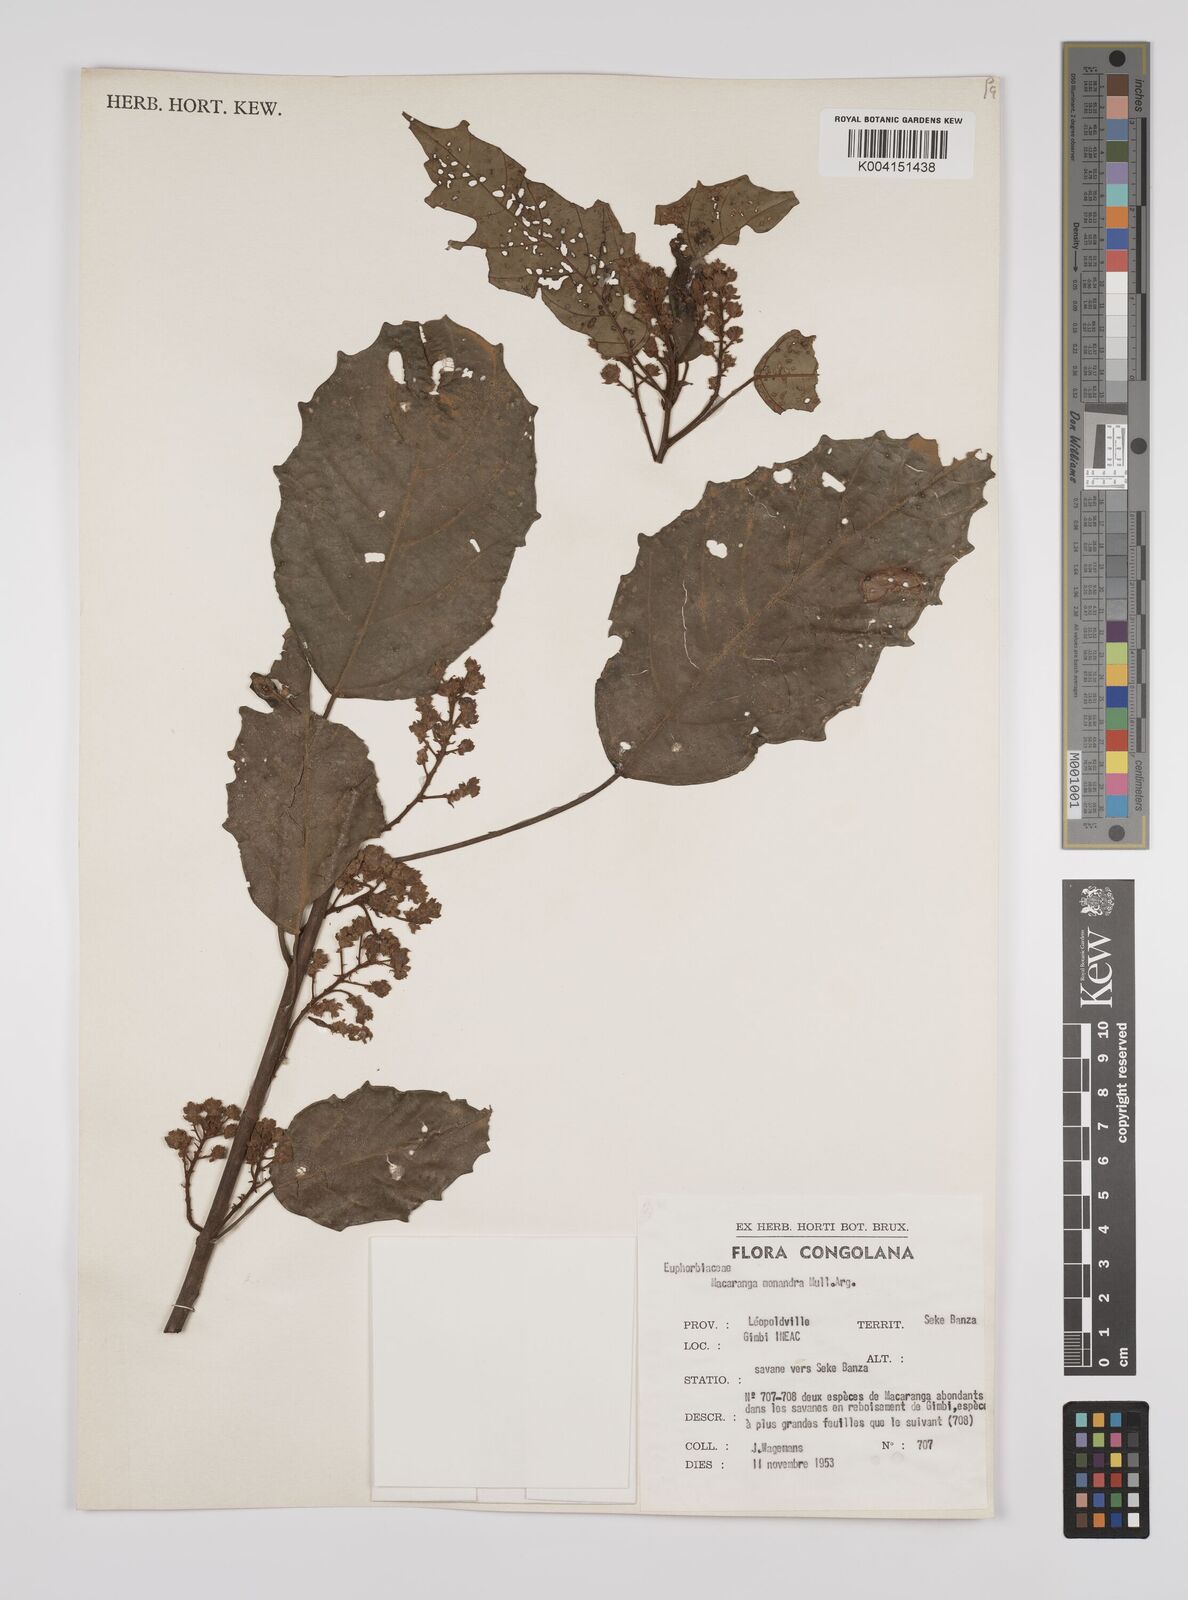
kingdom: Plantae
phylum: Tracheophyta
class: Magnoliopsida
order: Malpighiales
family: Euphorbiaceae
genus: Macaranga
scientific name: Macaranga monandra
